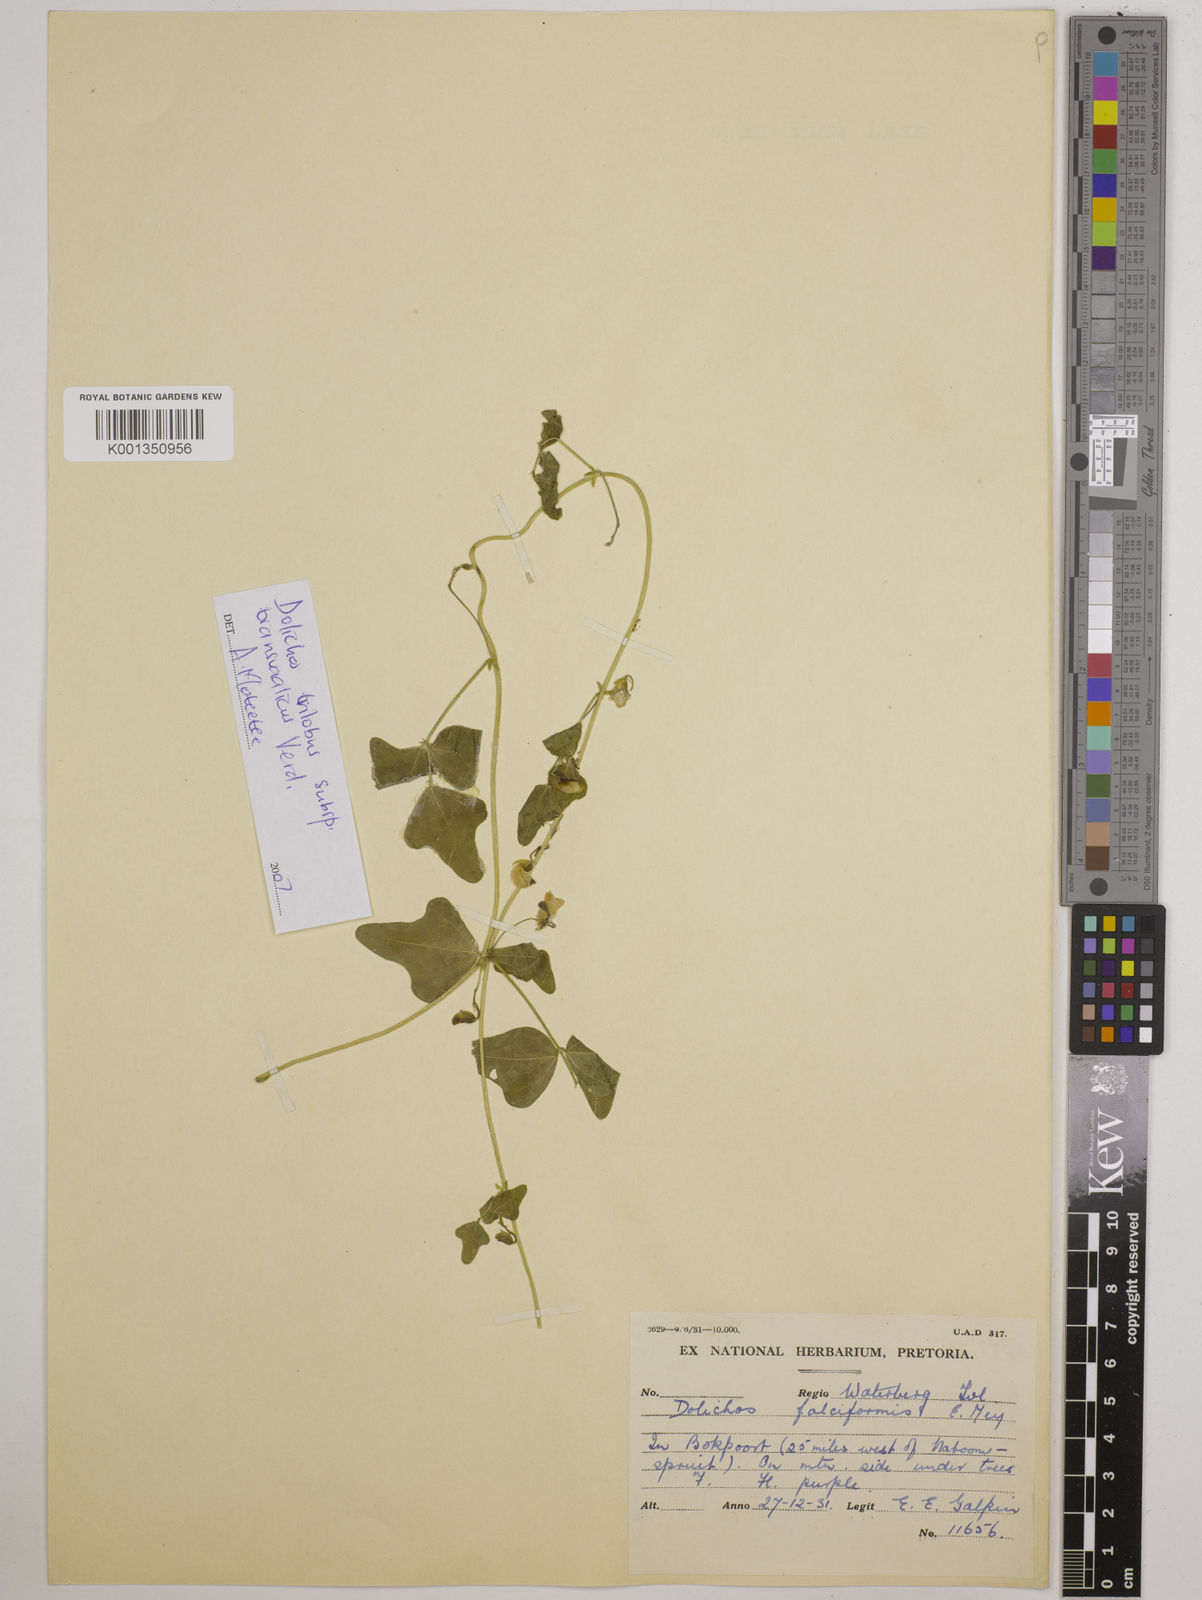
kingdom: Plantae
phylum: Tracheophyta
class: Magnoliopsida
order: Fabales
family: Fabaceae
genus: Dolichos
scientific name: Dolichos
